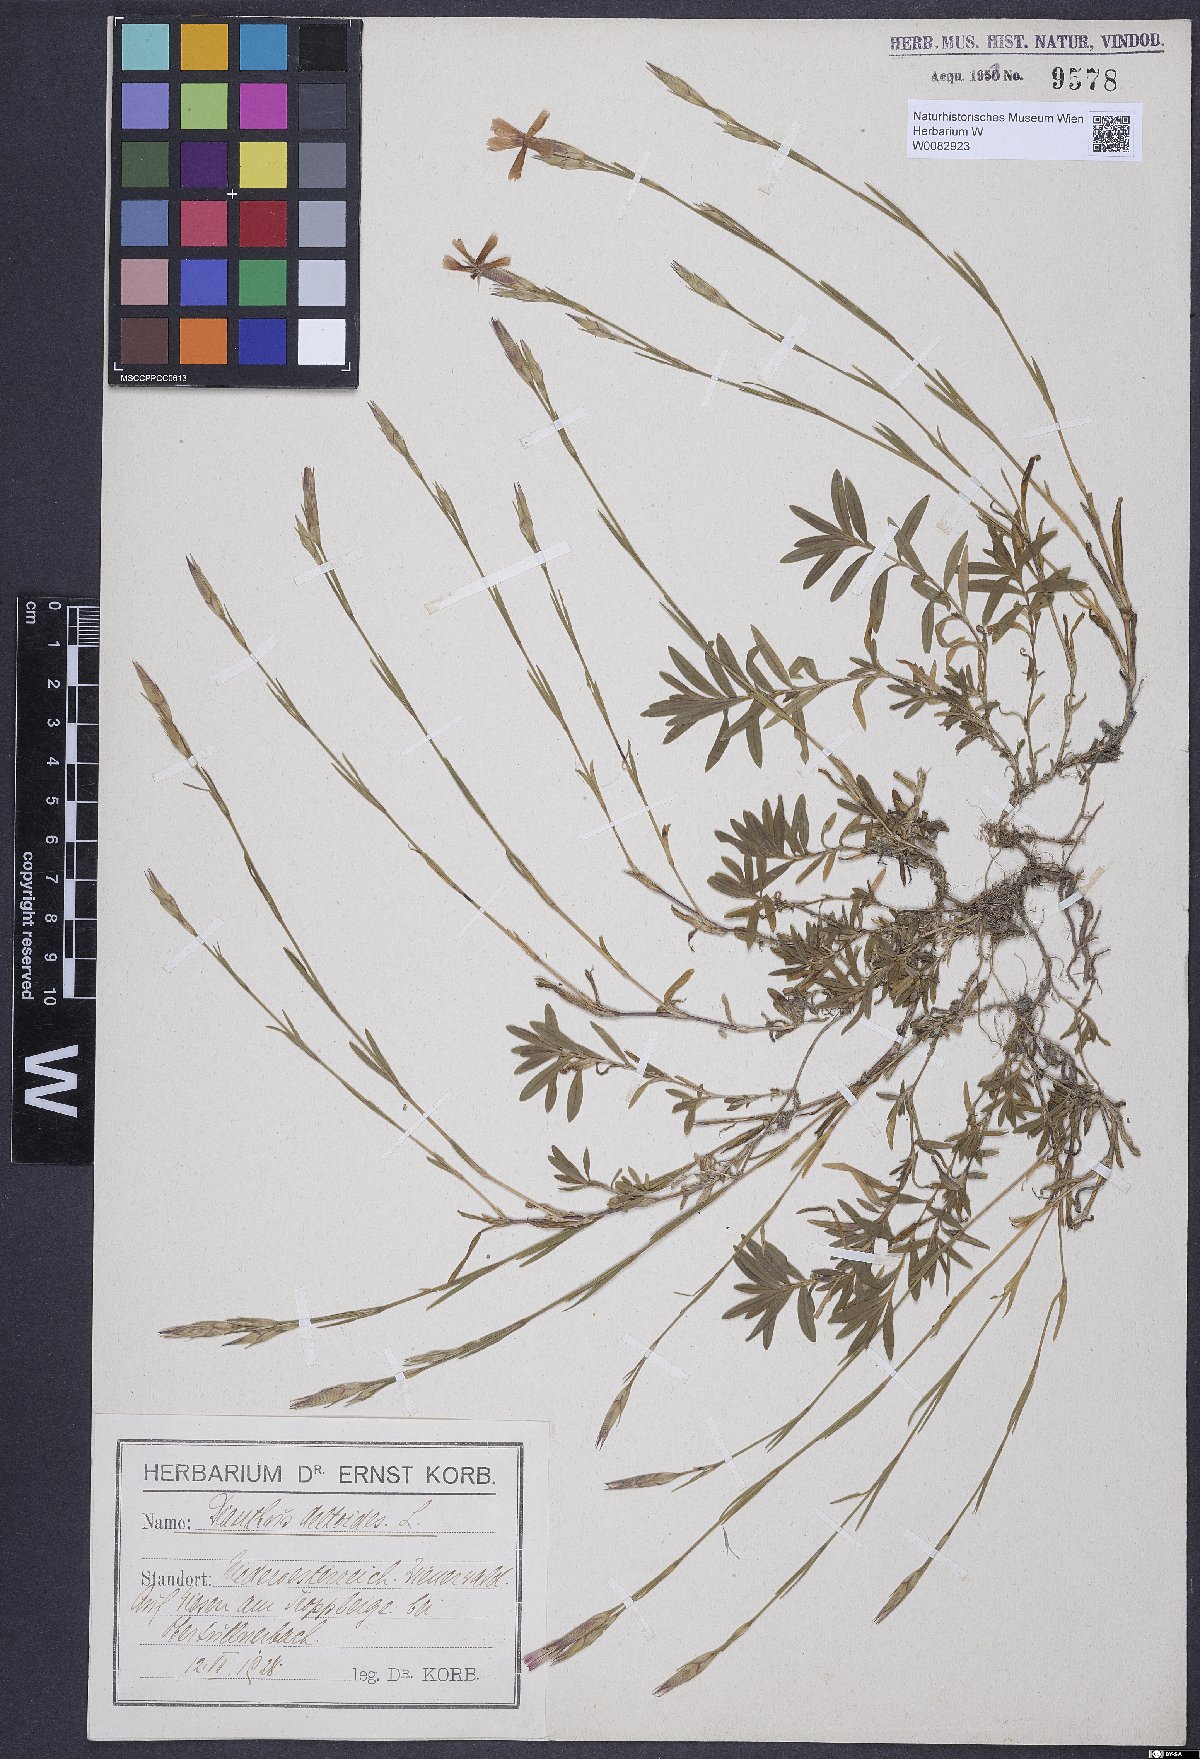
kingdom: Plantae
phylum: Tracheophyta
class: Magnoliopsida
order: Caryophyllales
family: Caryophyllaceae
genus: Dianthus
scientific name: Dianthus deltoides
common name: Maiden pink
